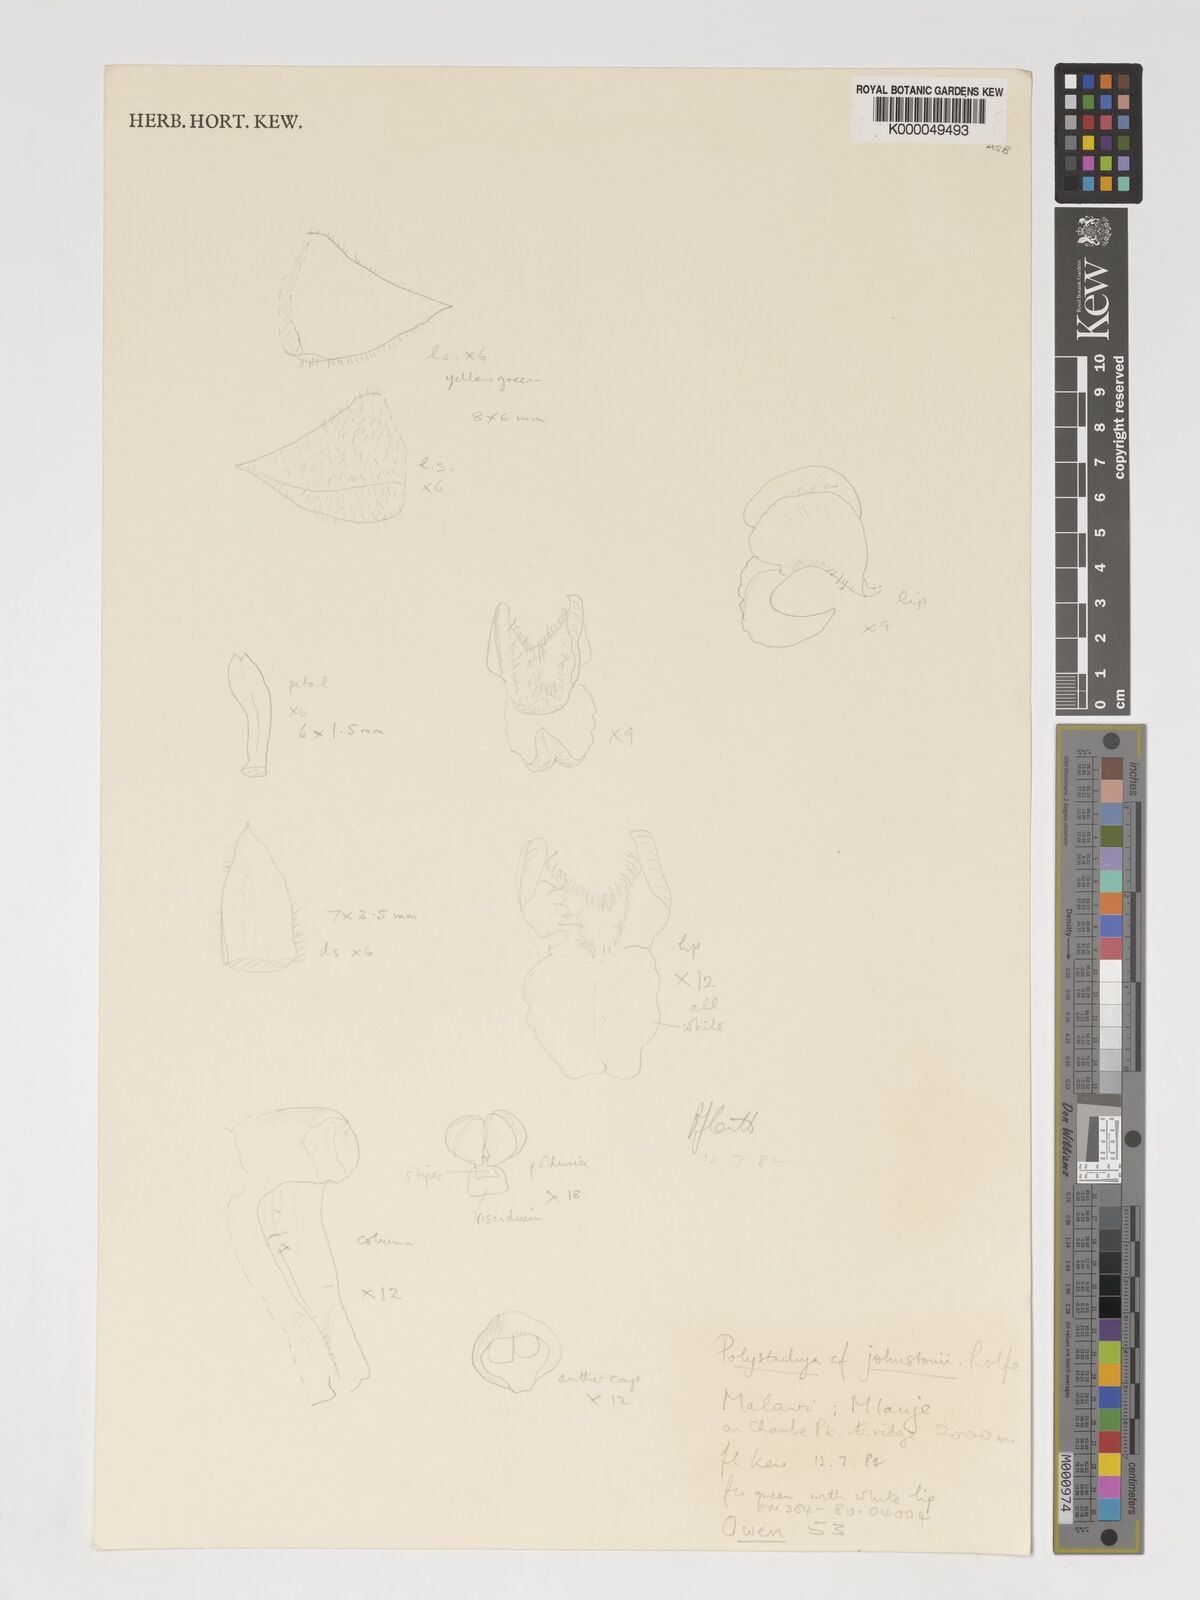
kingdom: Plantae
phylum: Tracheophyta
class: Liliopsida
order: Asparagales
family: Orchidaceae
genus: Polystachya
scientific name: Polystachya johnstonii
